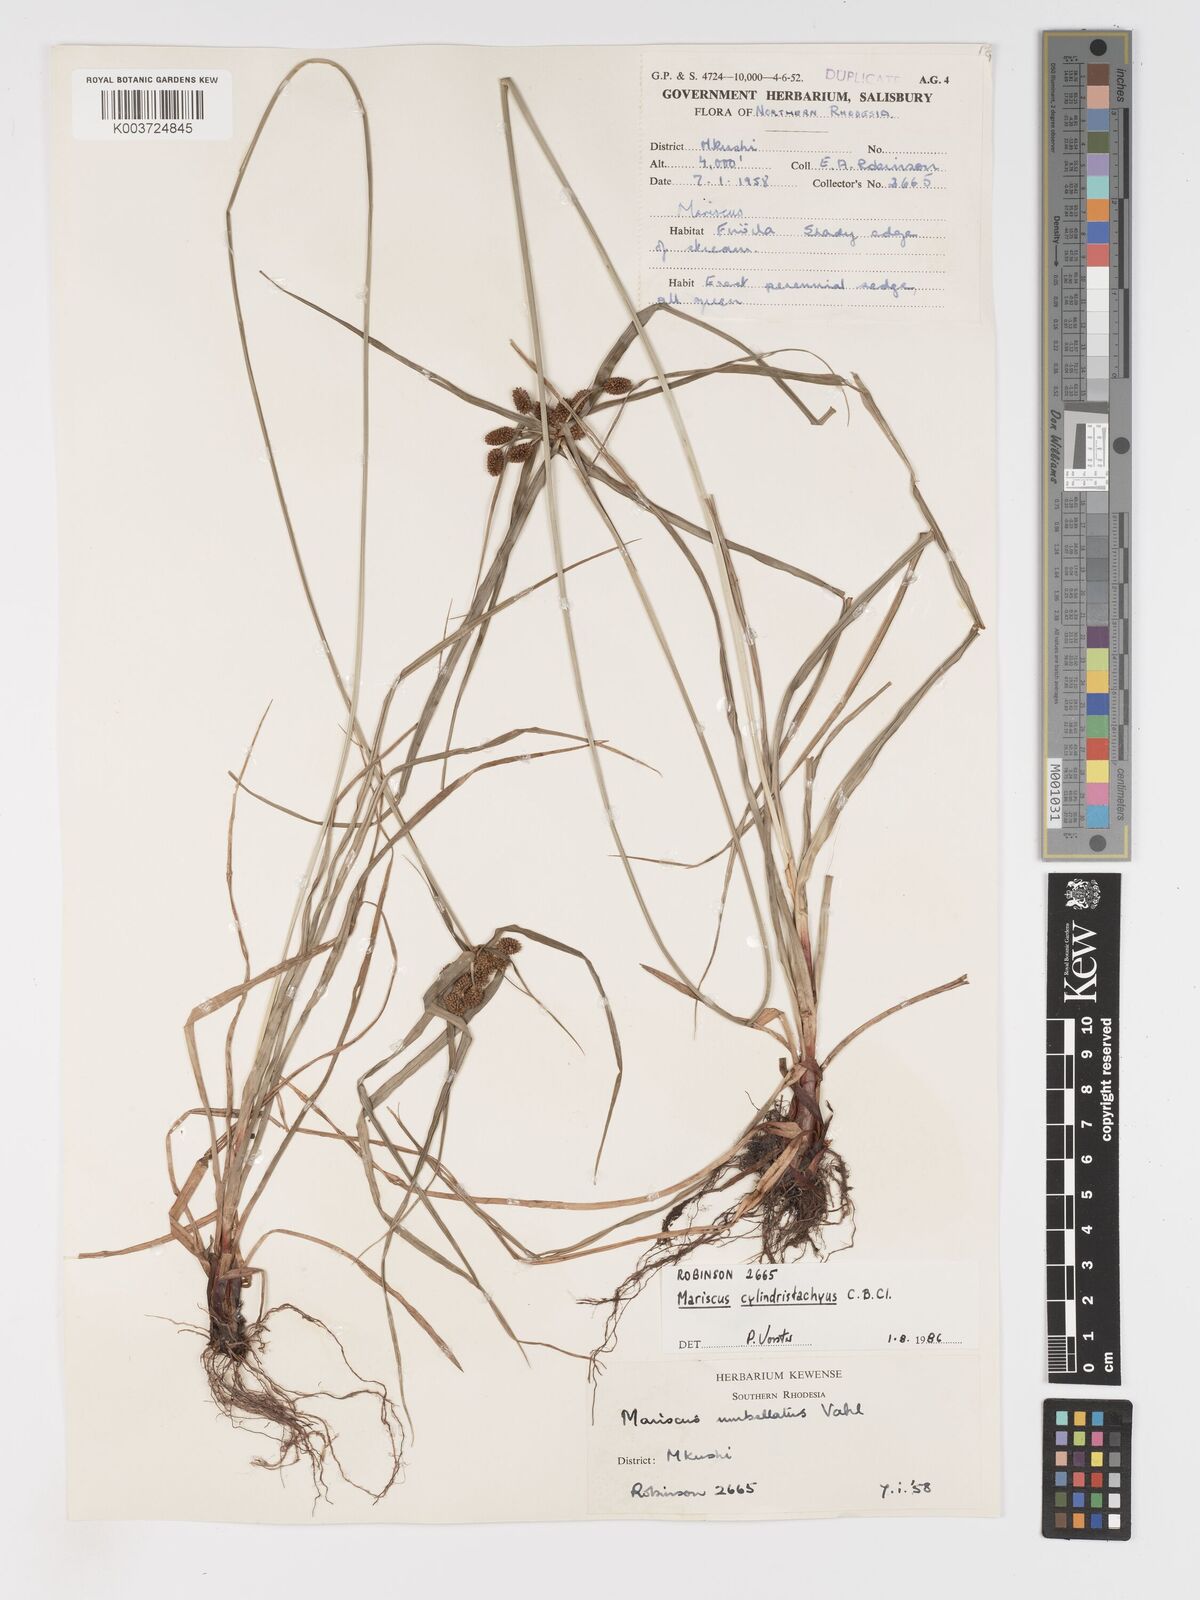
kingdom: Plantae
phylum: Tracheophyta
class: Liliopsida
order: Poales
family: Cyperaceae
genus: Cyperus
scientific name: Cyperus cyperoides
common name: Pacific island flat sedge
